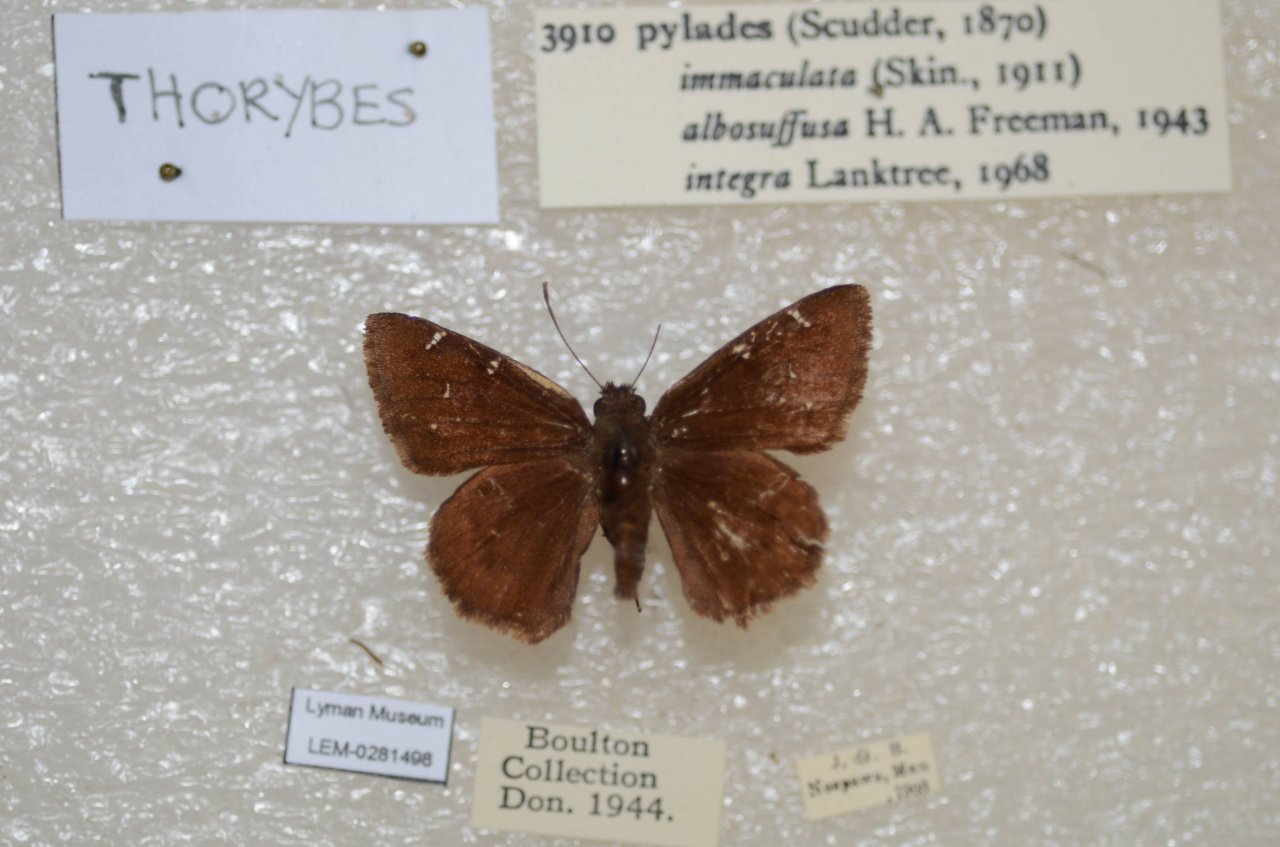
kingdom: Animalia
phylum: Arthropoda
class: Insecta
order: Lepidoptera
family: Hesperiidae
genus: Autochton
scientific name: Autochton
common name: Northern Cloudywing
